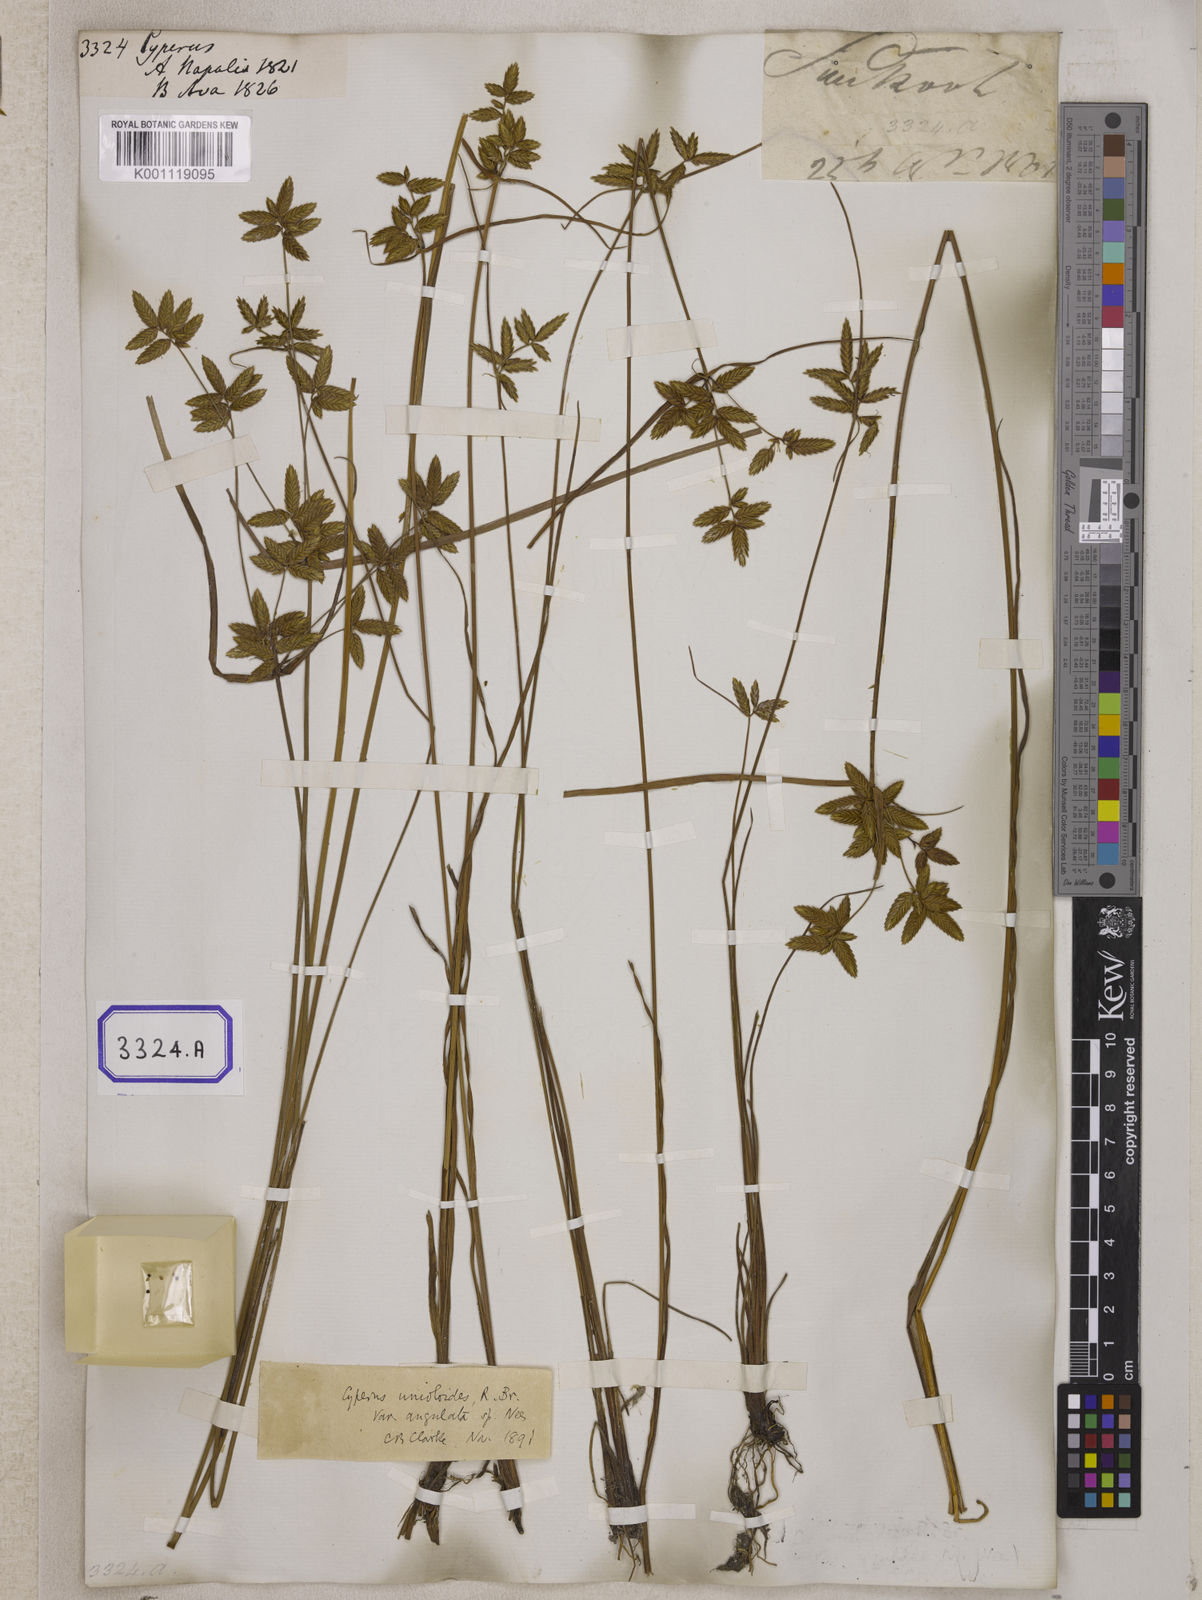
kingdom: Plantae
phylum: Tracheophyta
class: Liliopsida
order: Poales
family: Cyperaceae
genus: Cyperus
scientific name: Cyperus
